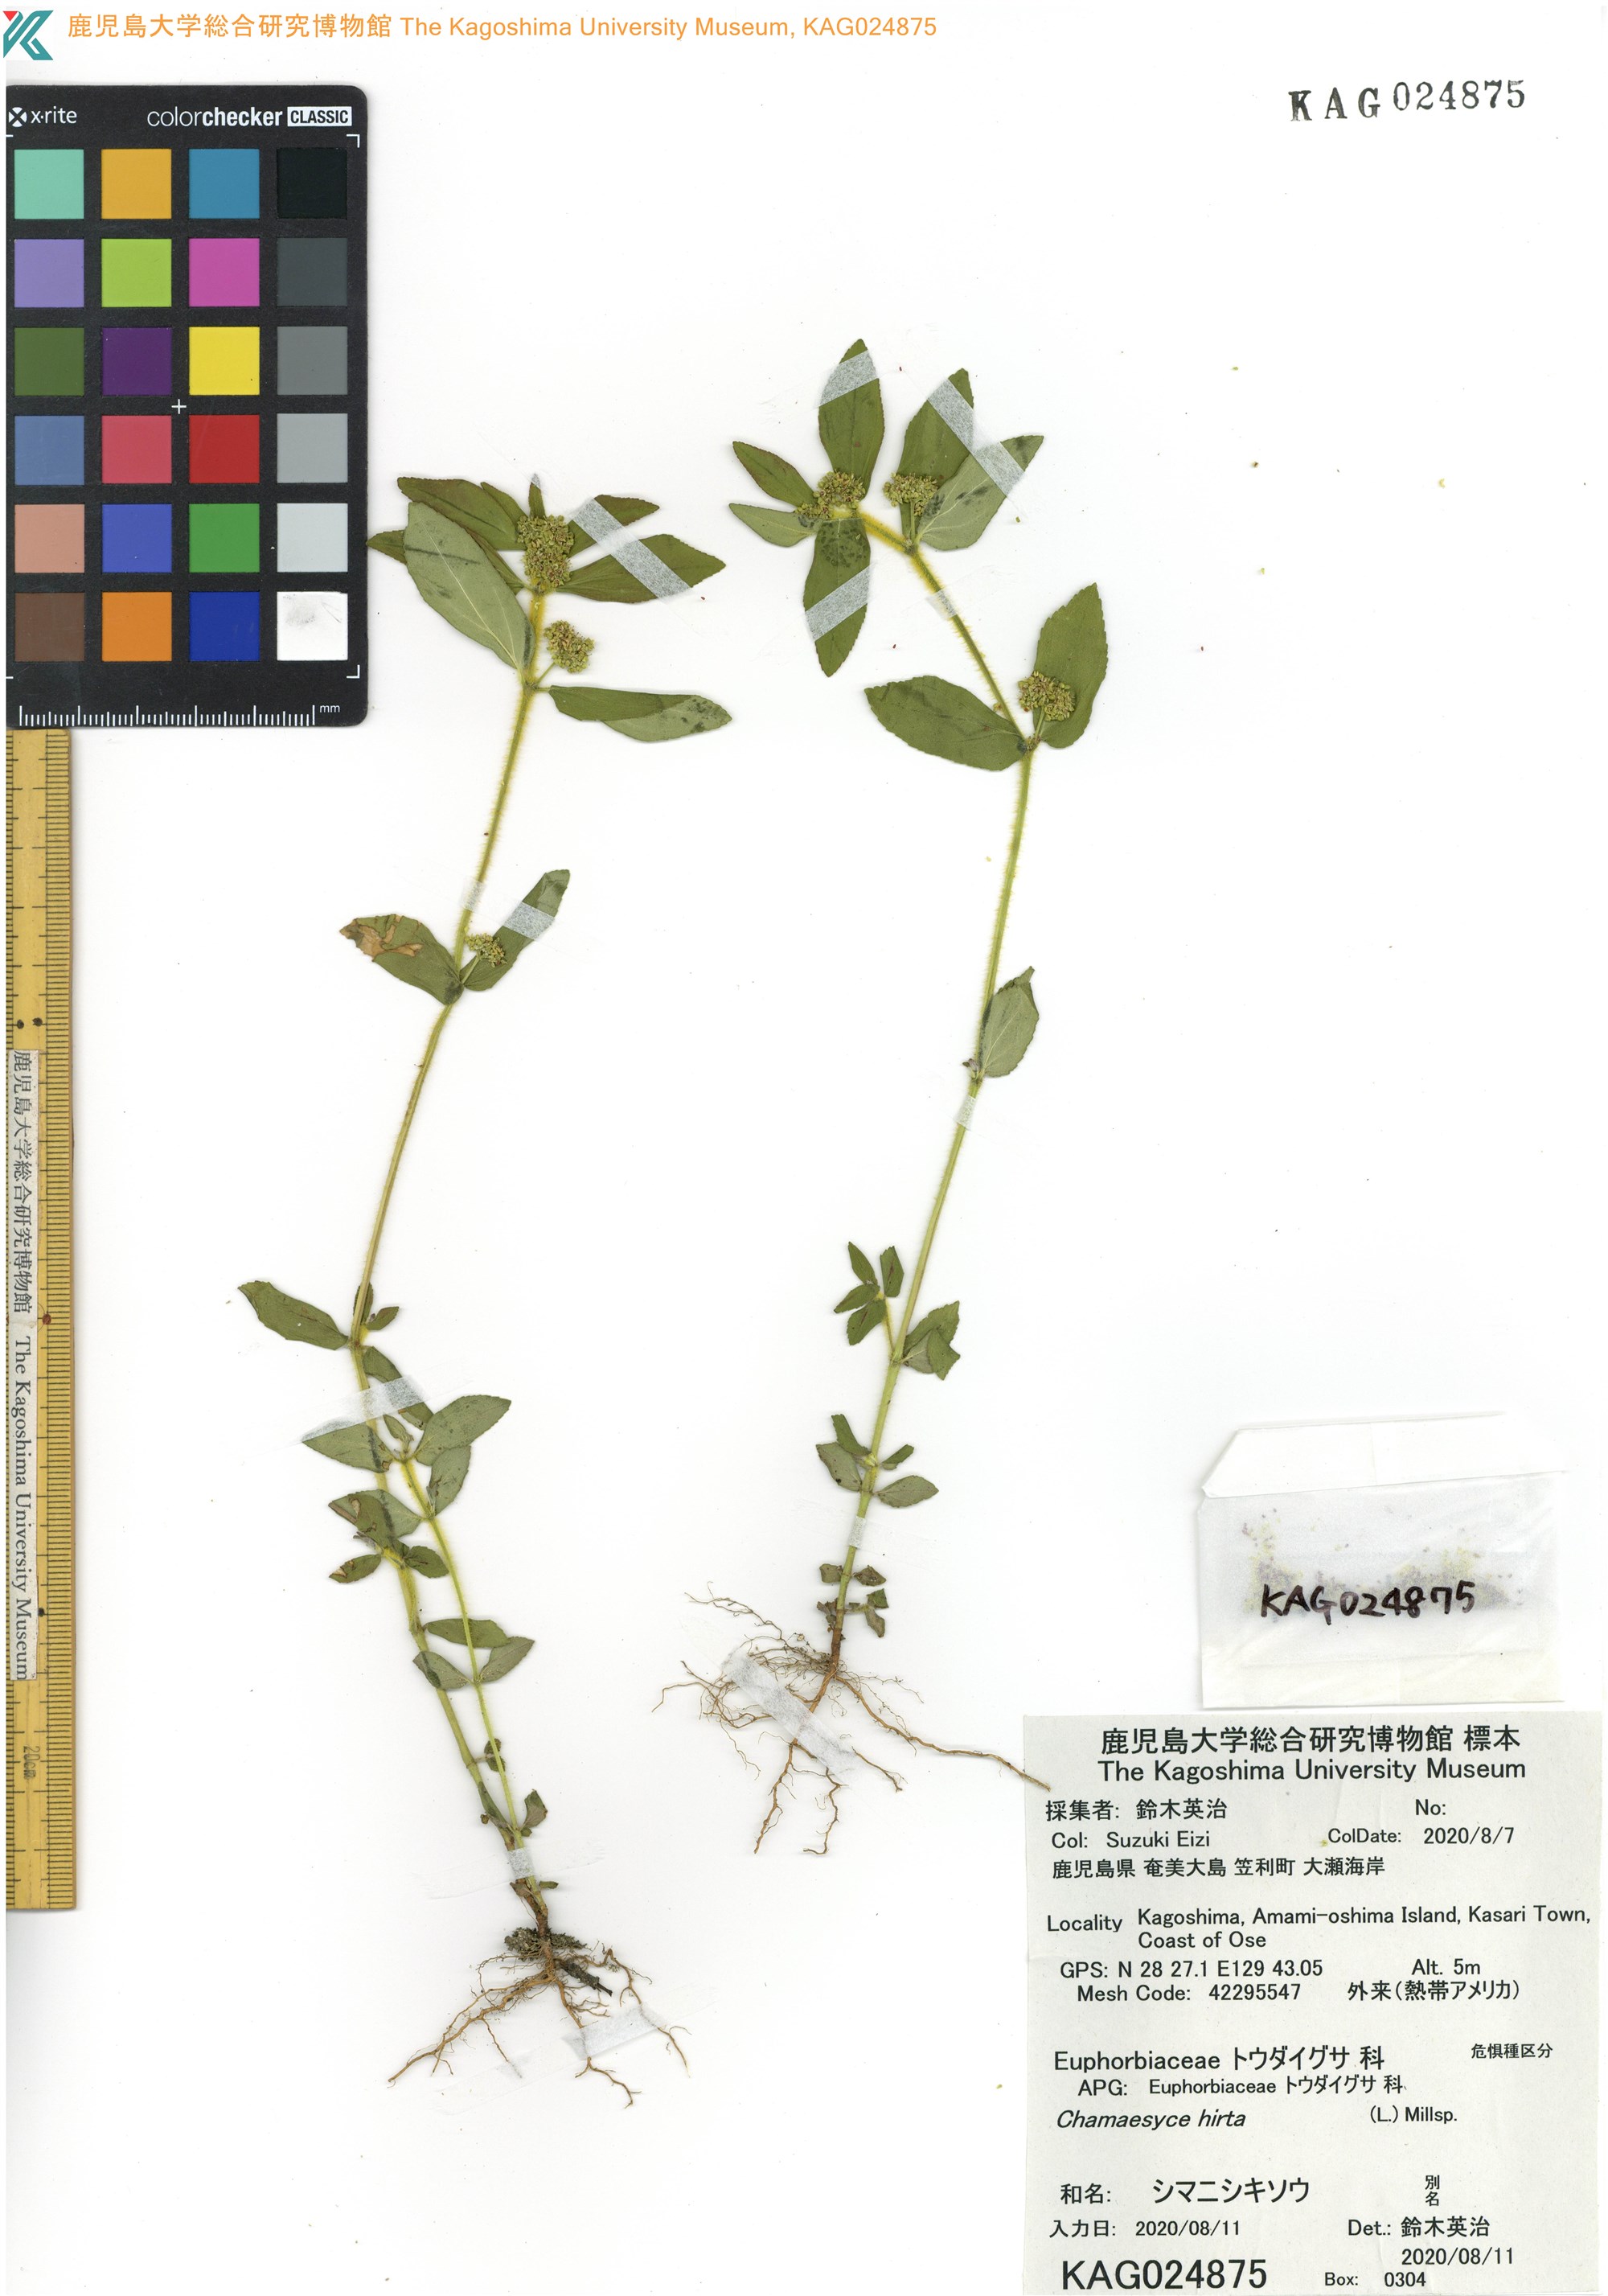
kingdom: Plantae
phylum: Tracheophyta
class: Magnoliopsida
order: Malpighiales
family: Euphorbiaceae
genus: Euphorbia
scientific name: Euphorbia hirta
